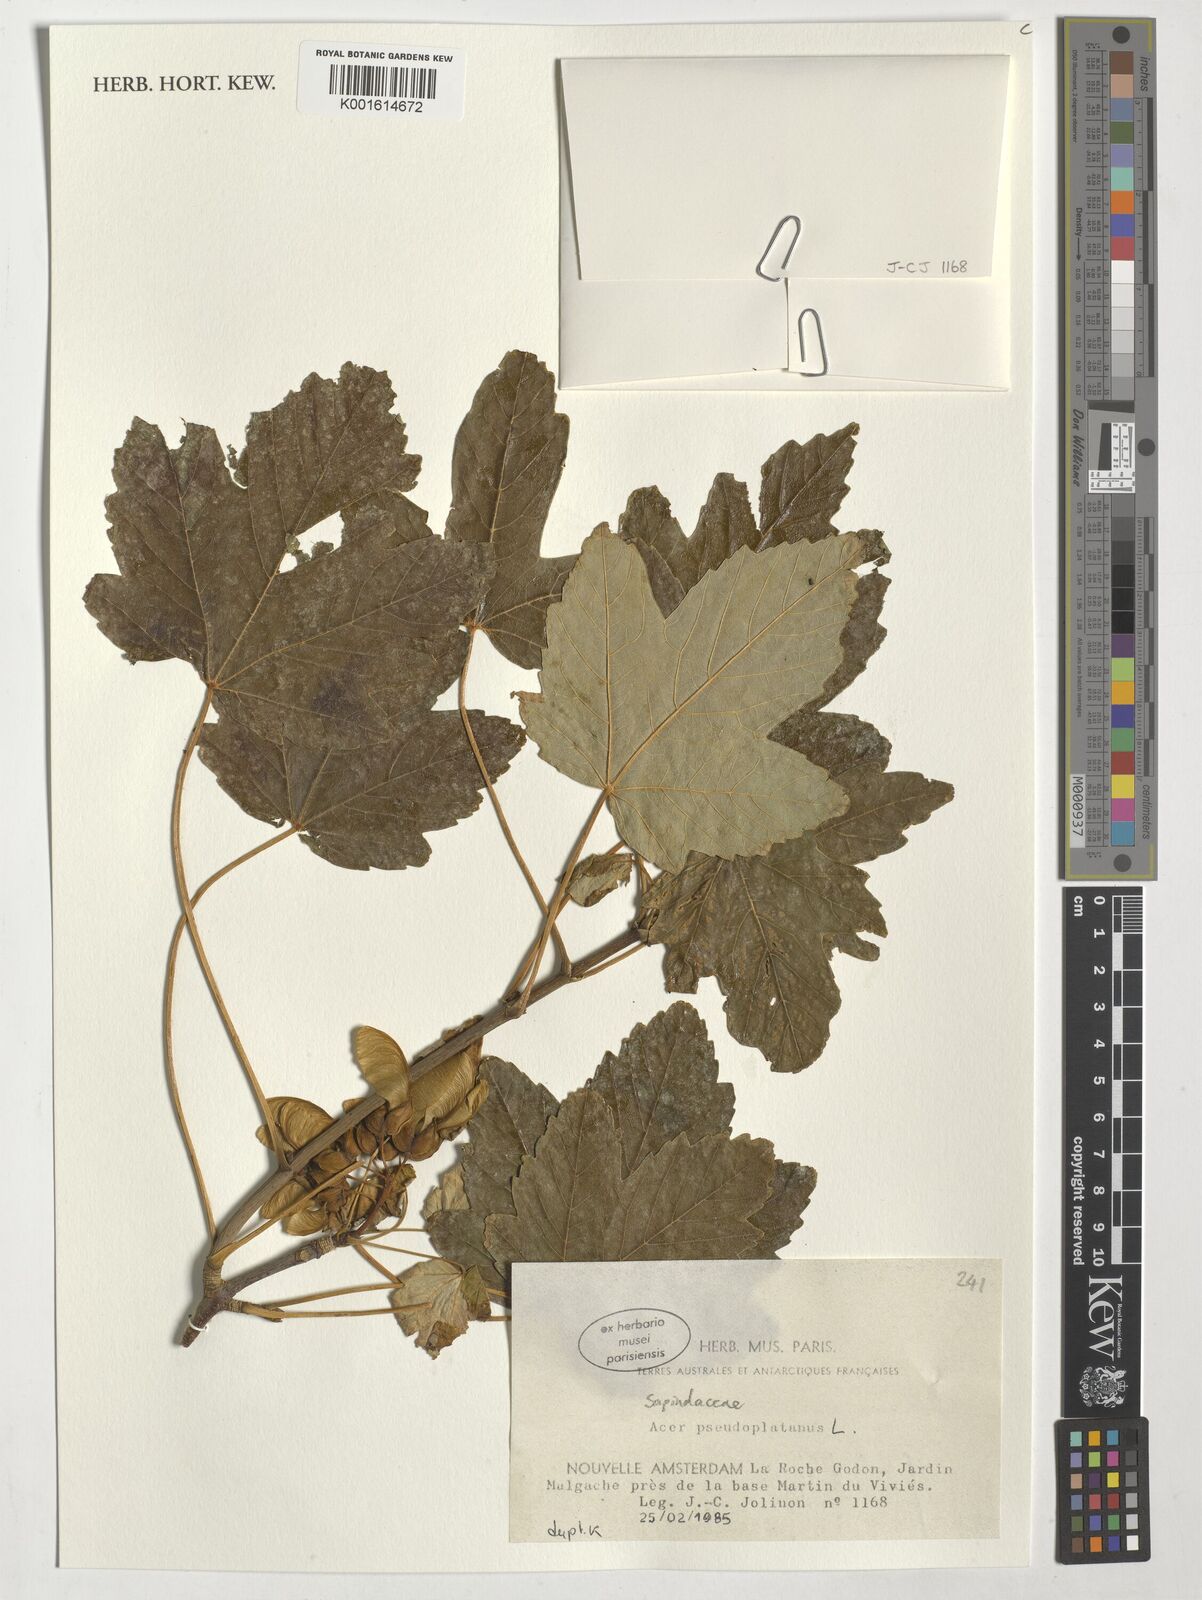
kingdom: Plantae
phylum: Tracheophyta
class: Magnoliopsida
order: Sapindales
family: Sapindaceae
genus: Acer
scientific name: Acer pseudoplatanus
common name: Sycamore
